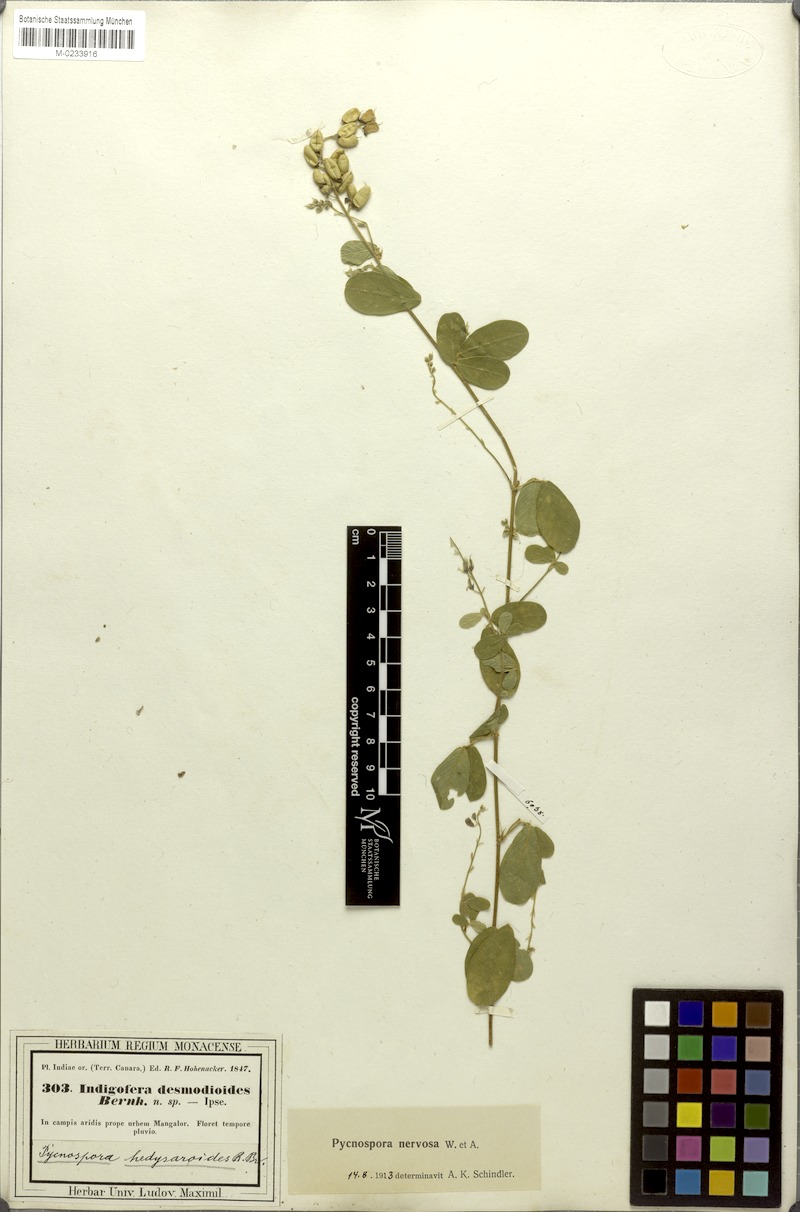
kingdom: Plantae
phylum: Tracheophyta
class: Magnoliopsida
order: Fabales
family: Fabaceae
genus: Pycnospora
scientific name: Pycnospora lutescens
